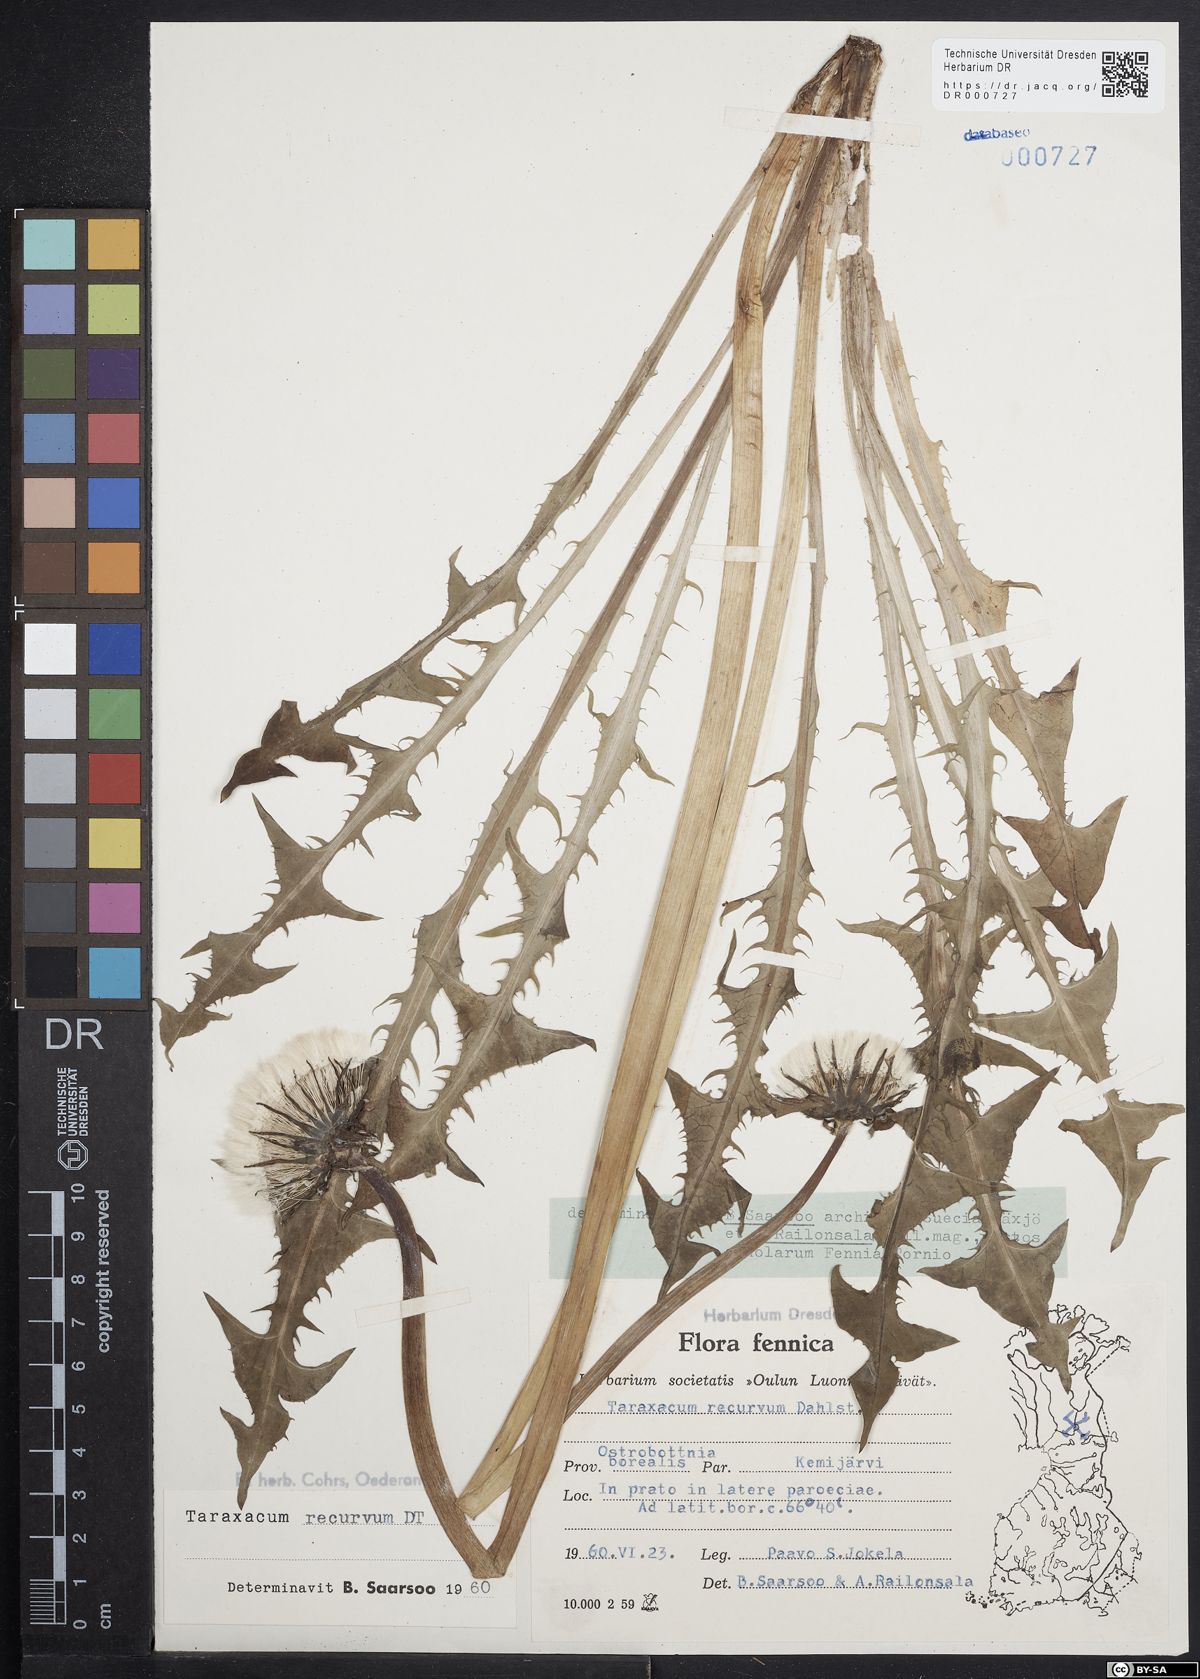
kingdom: Plantae
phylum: Tracheophyta
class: Magnoliopsida
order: Asterales
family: Asteraceae
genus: Taraxacum
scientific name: Taraxacum recurvum
